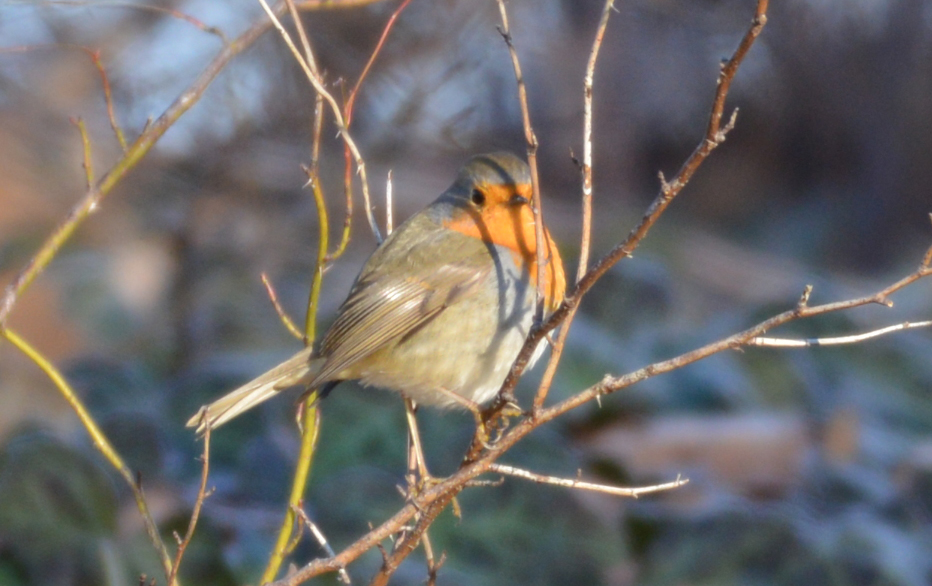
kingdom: Animalia
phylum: Chordata
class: Aves
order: Passeriformes
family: Muscicapidae
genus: Erithacus
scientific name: Erithacus rubecula
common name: European robin
